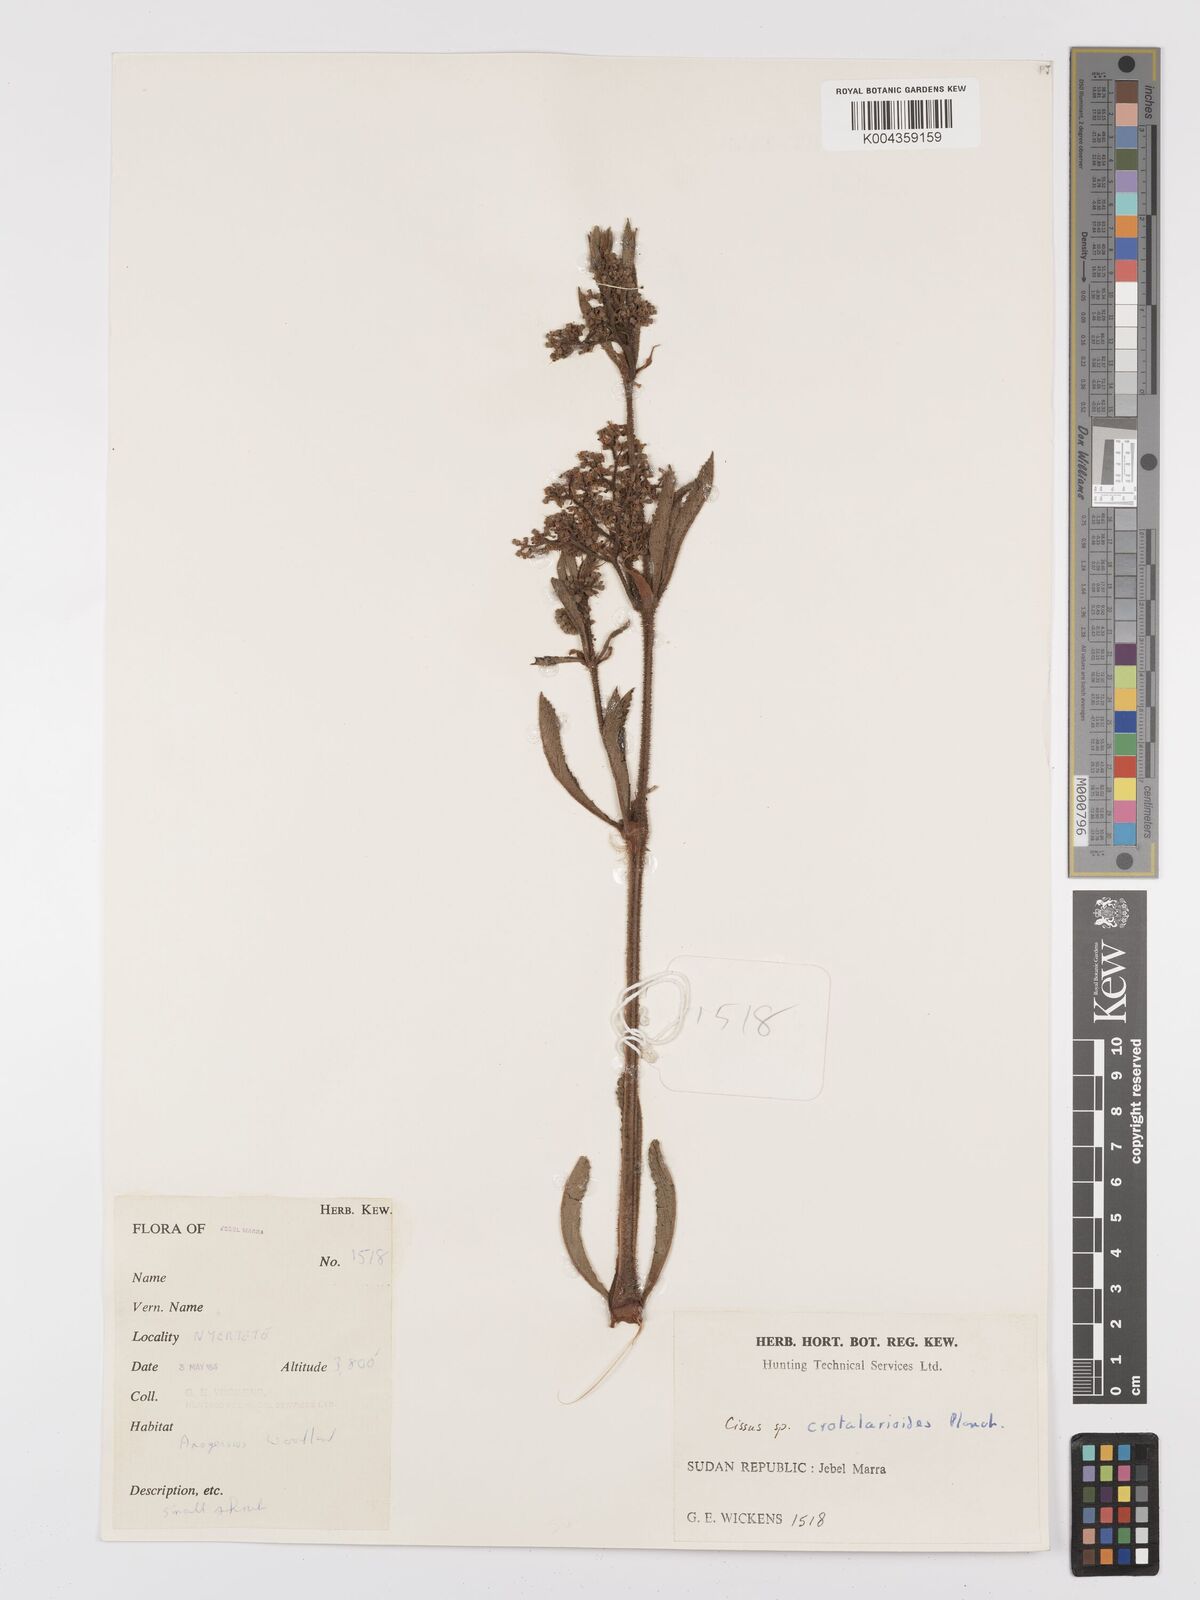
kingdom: Plantae
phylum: Tracheophyta
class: Magnoliopsida
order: Vitales
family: Vitaceae
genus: Cyphostemma
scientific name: Cyphostemma crotalarioides
